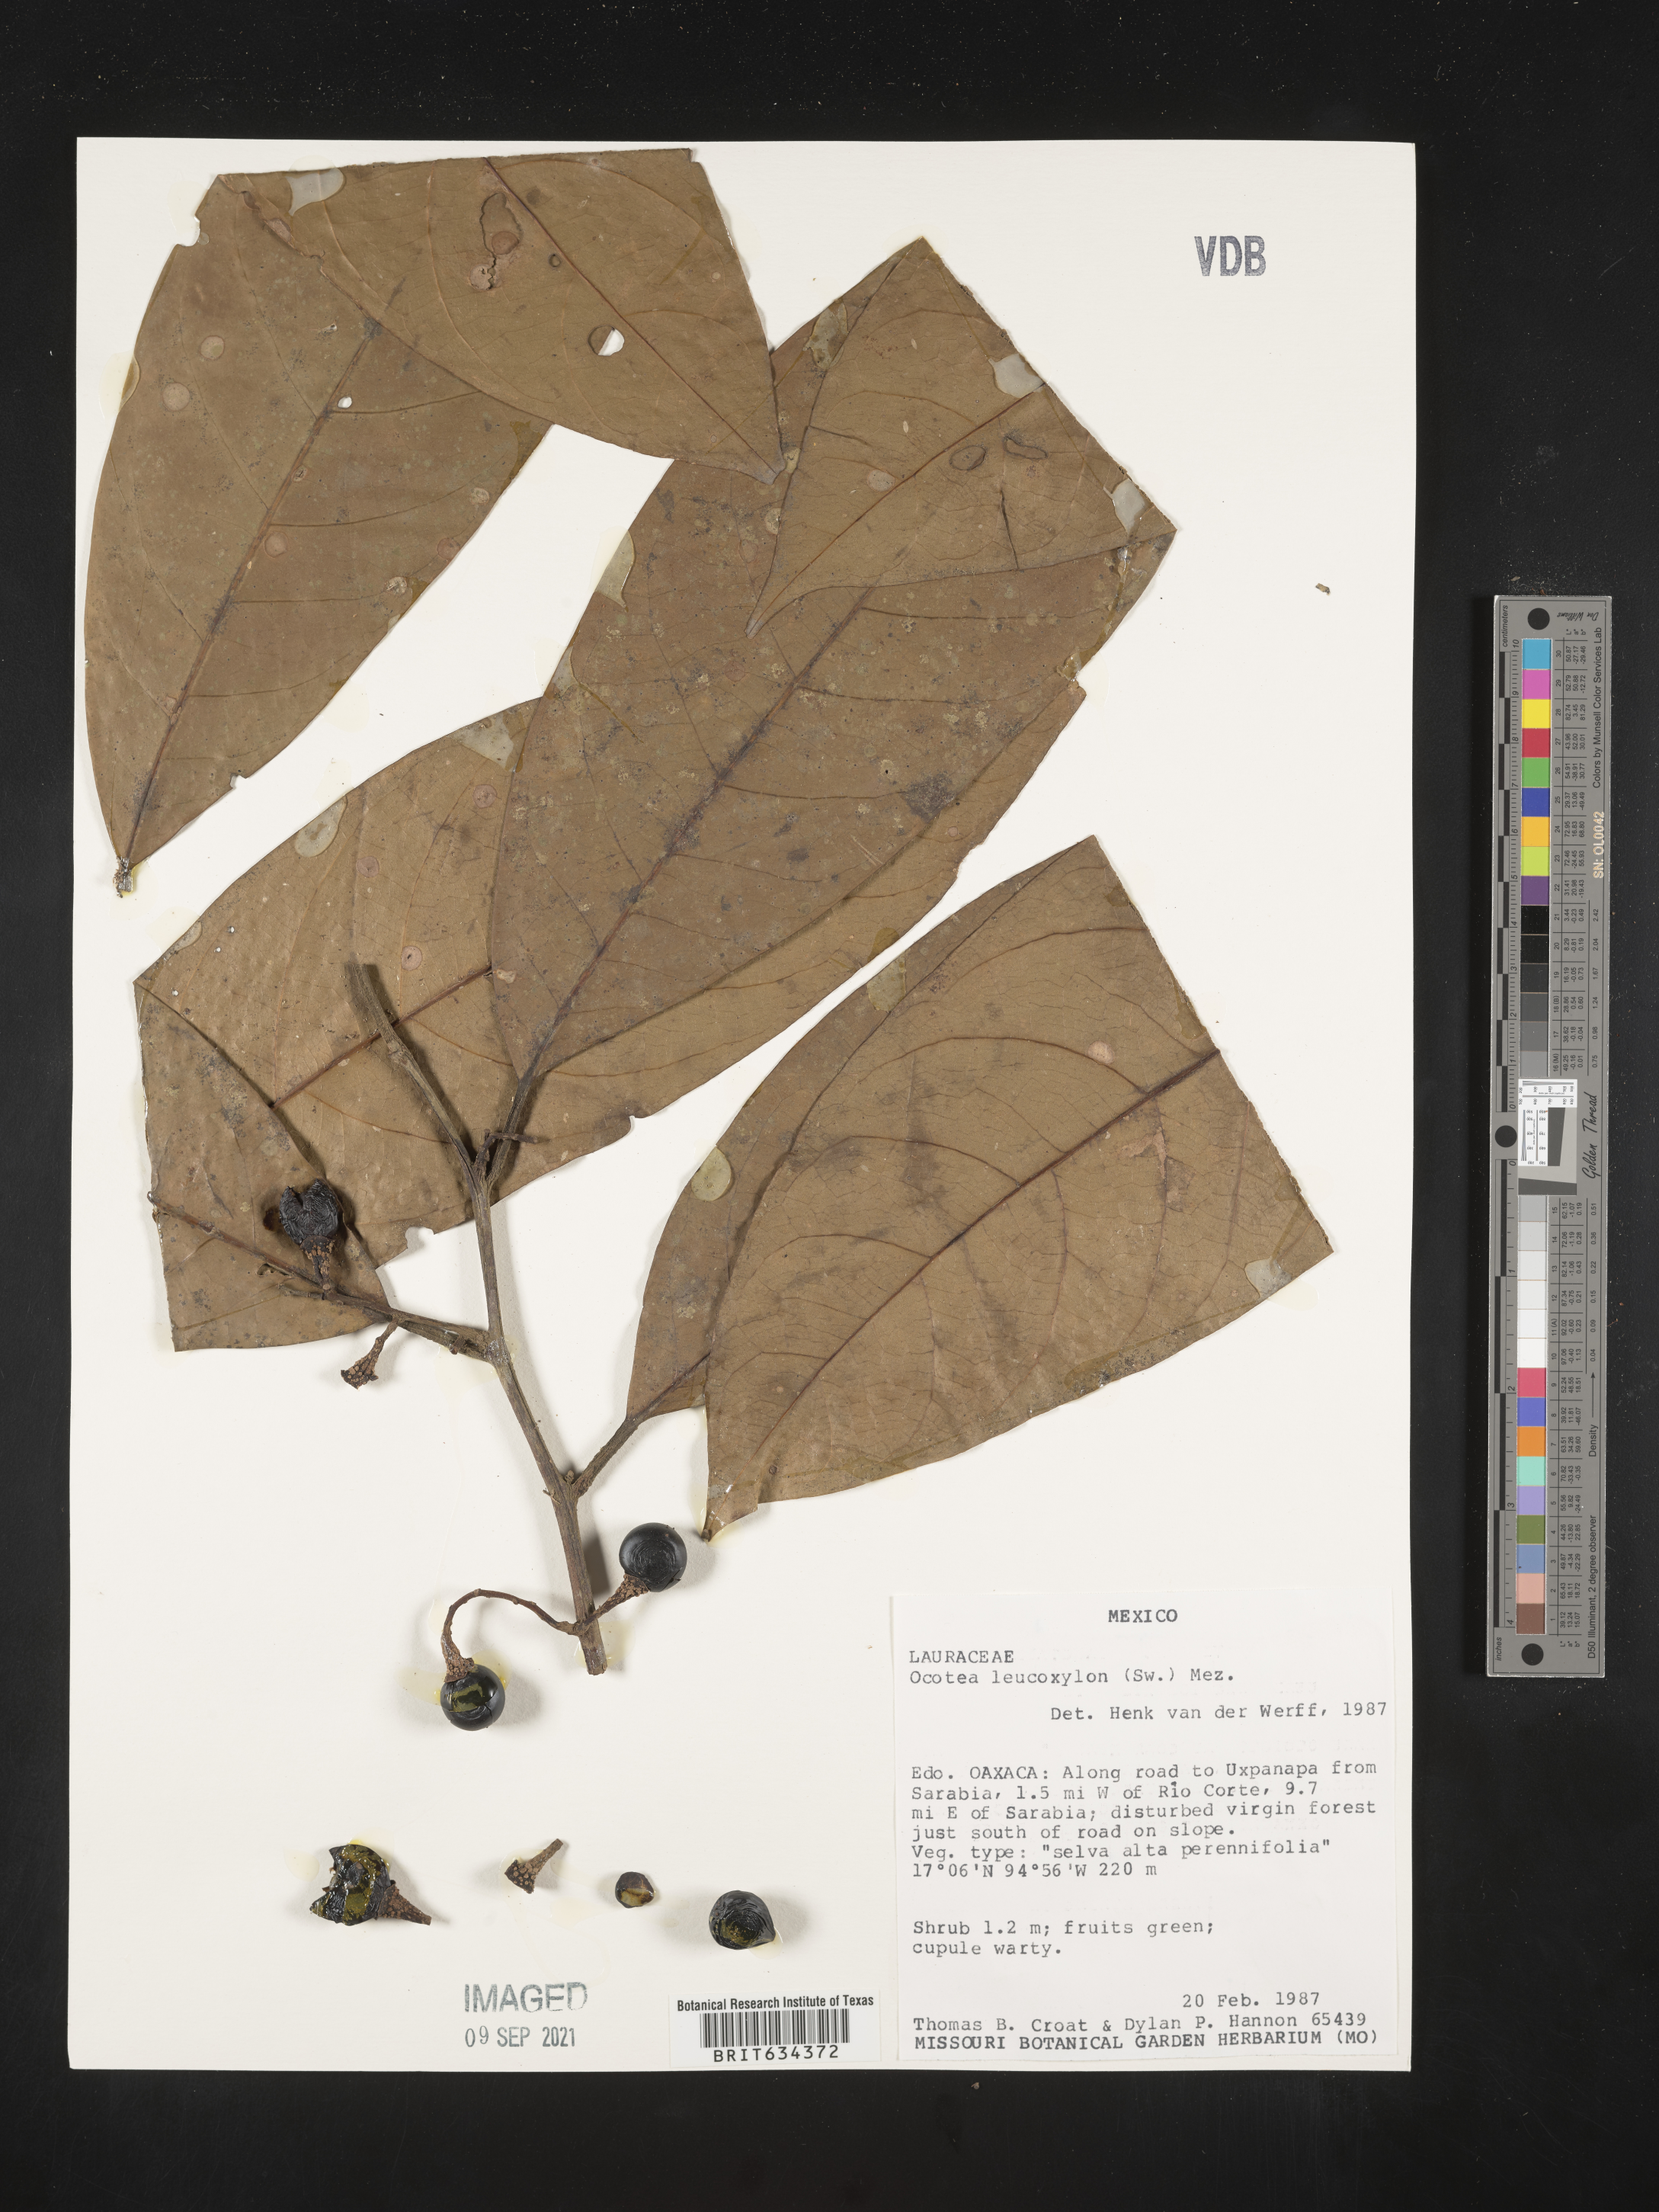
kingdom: Plantae
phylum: Tracheophyta
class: Magnoliopsida
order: Laurales
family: Lauraceae
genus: Ocotea
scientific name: Ocotea
